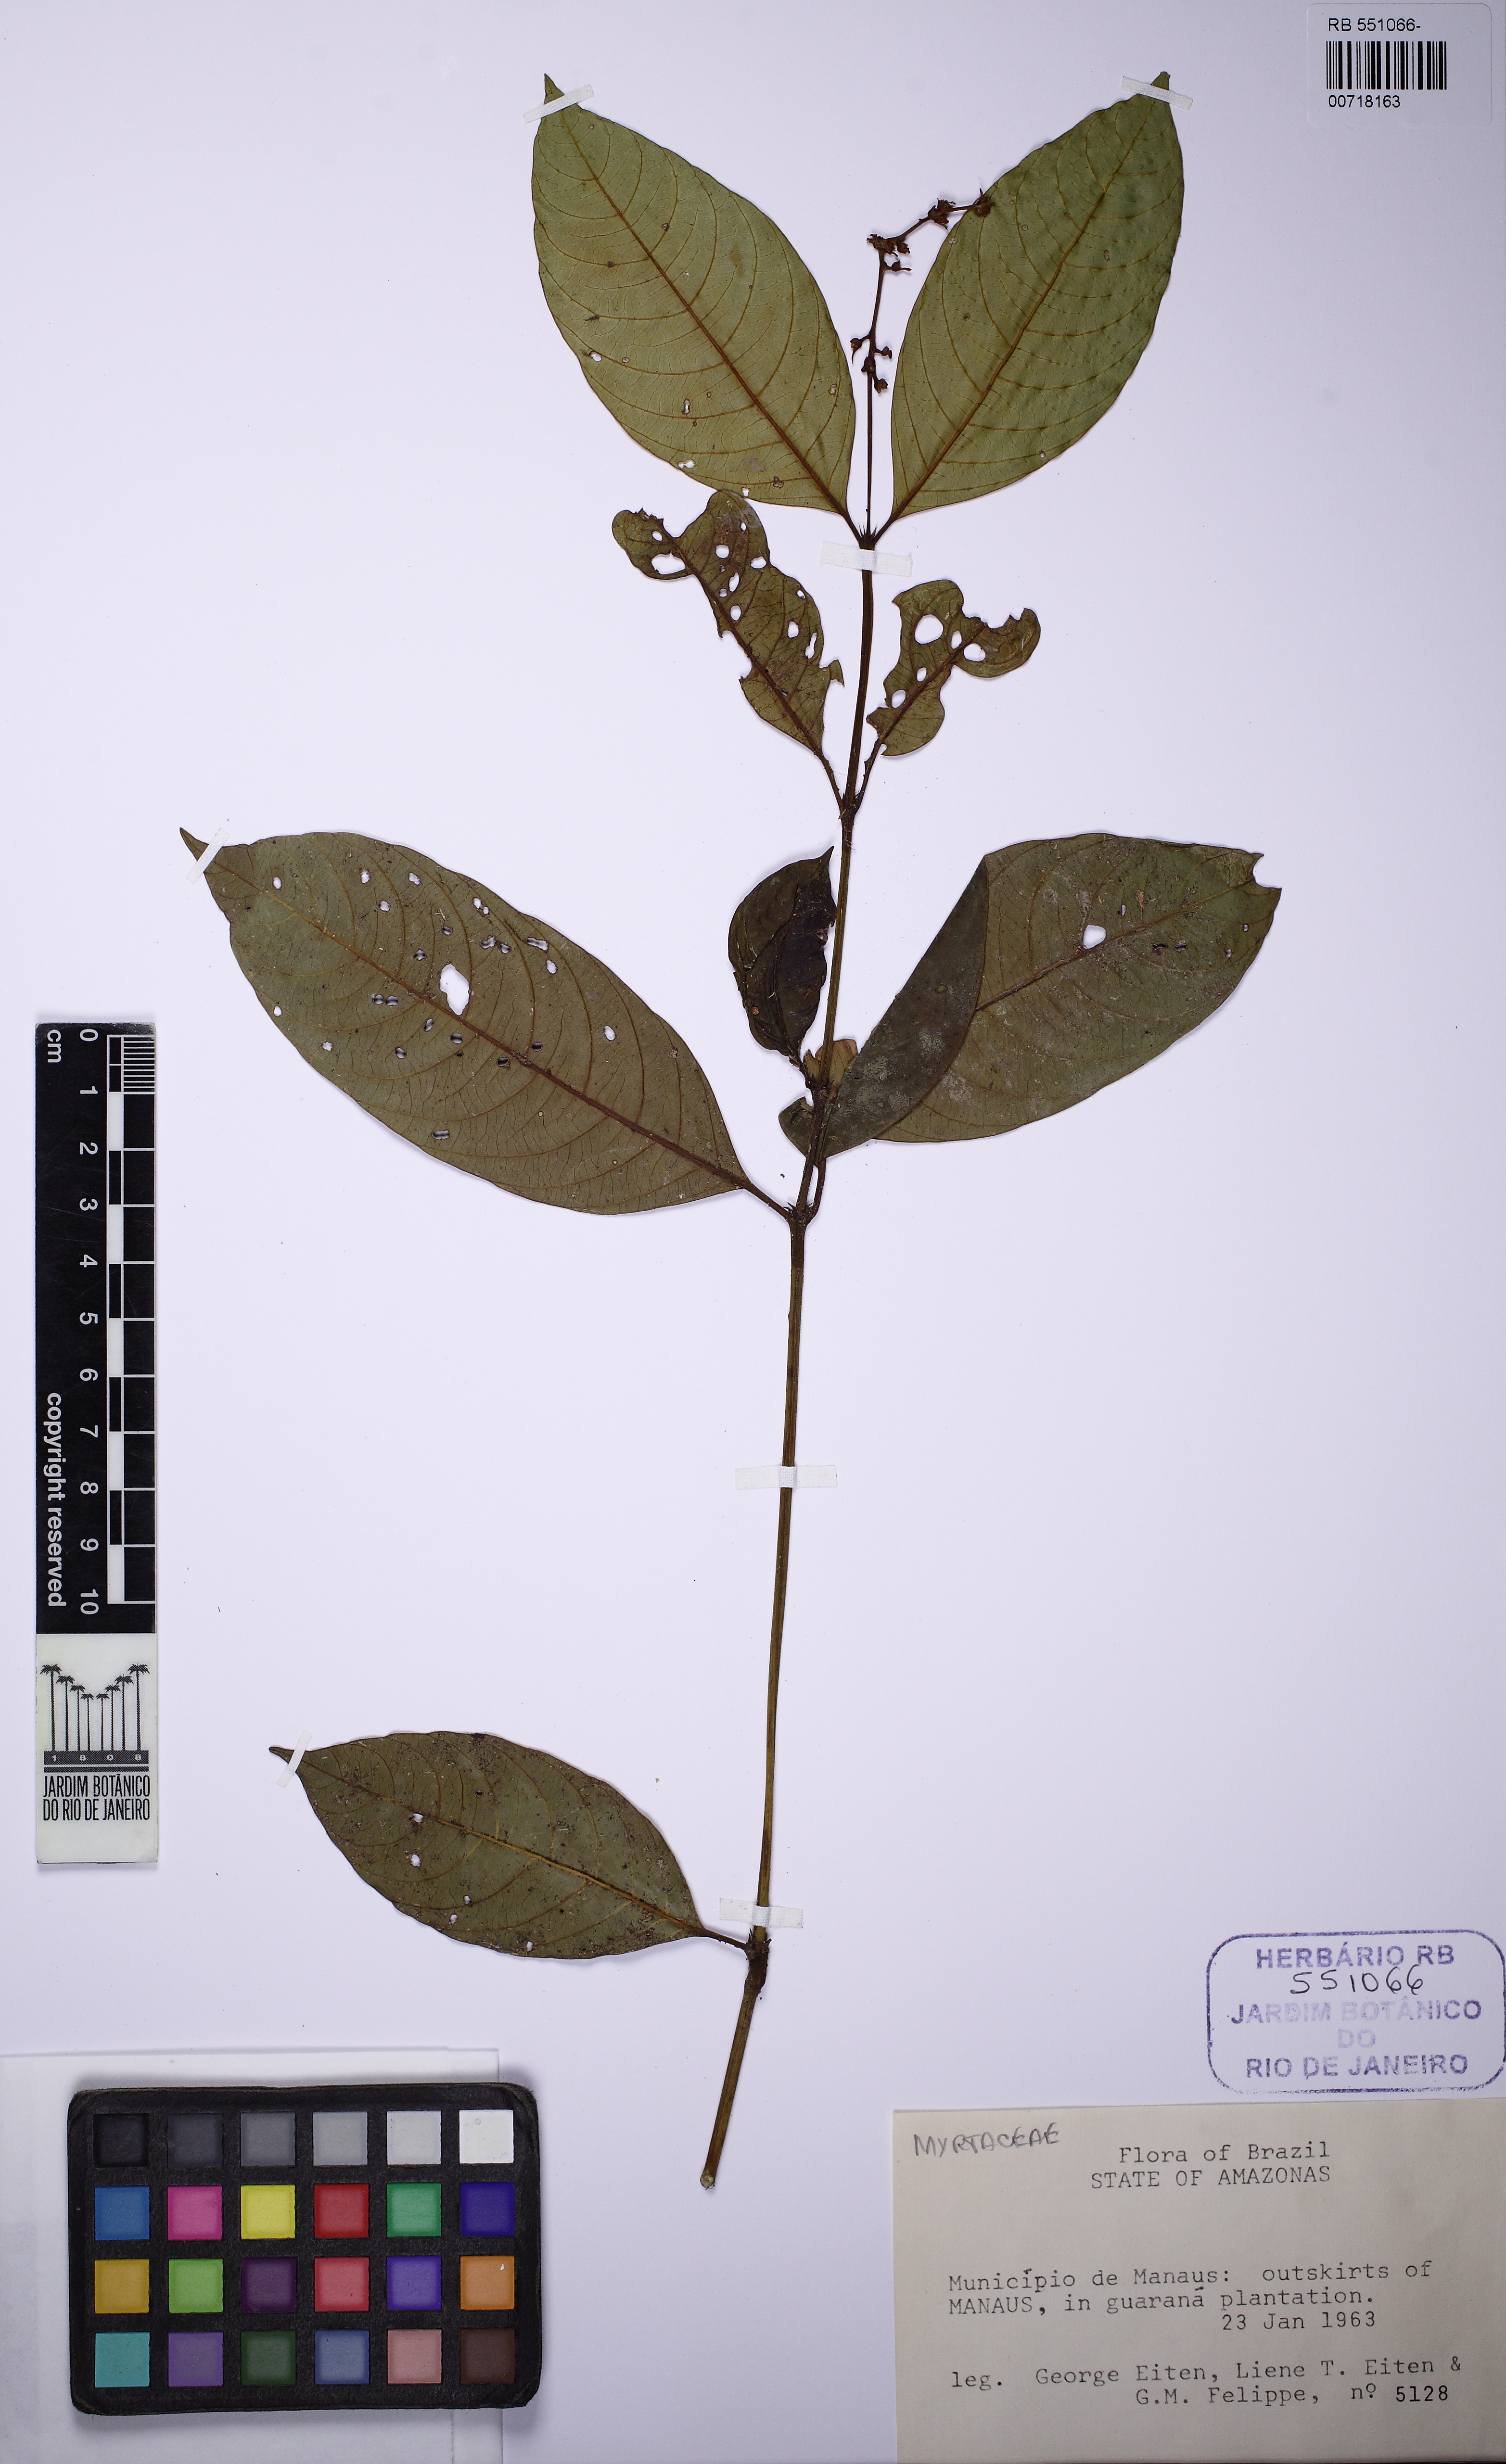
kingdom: Plantae
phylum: Tracheophyta
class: Magnoliopsida
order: Gentianales
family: Rubiaceae
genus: Psychotria
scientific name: Psychotria
